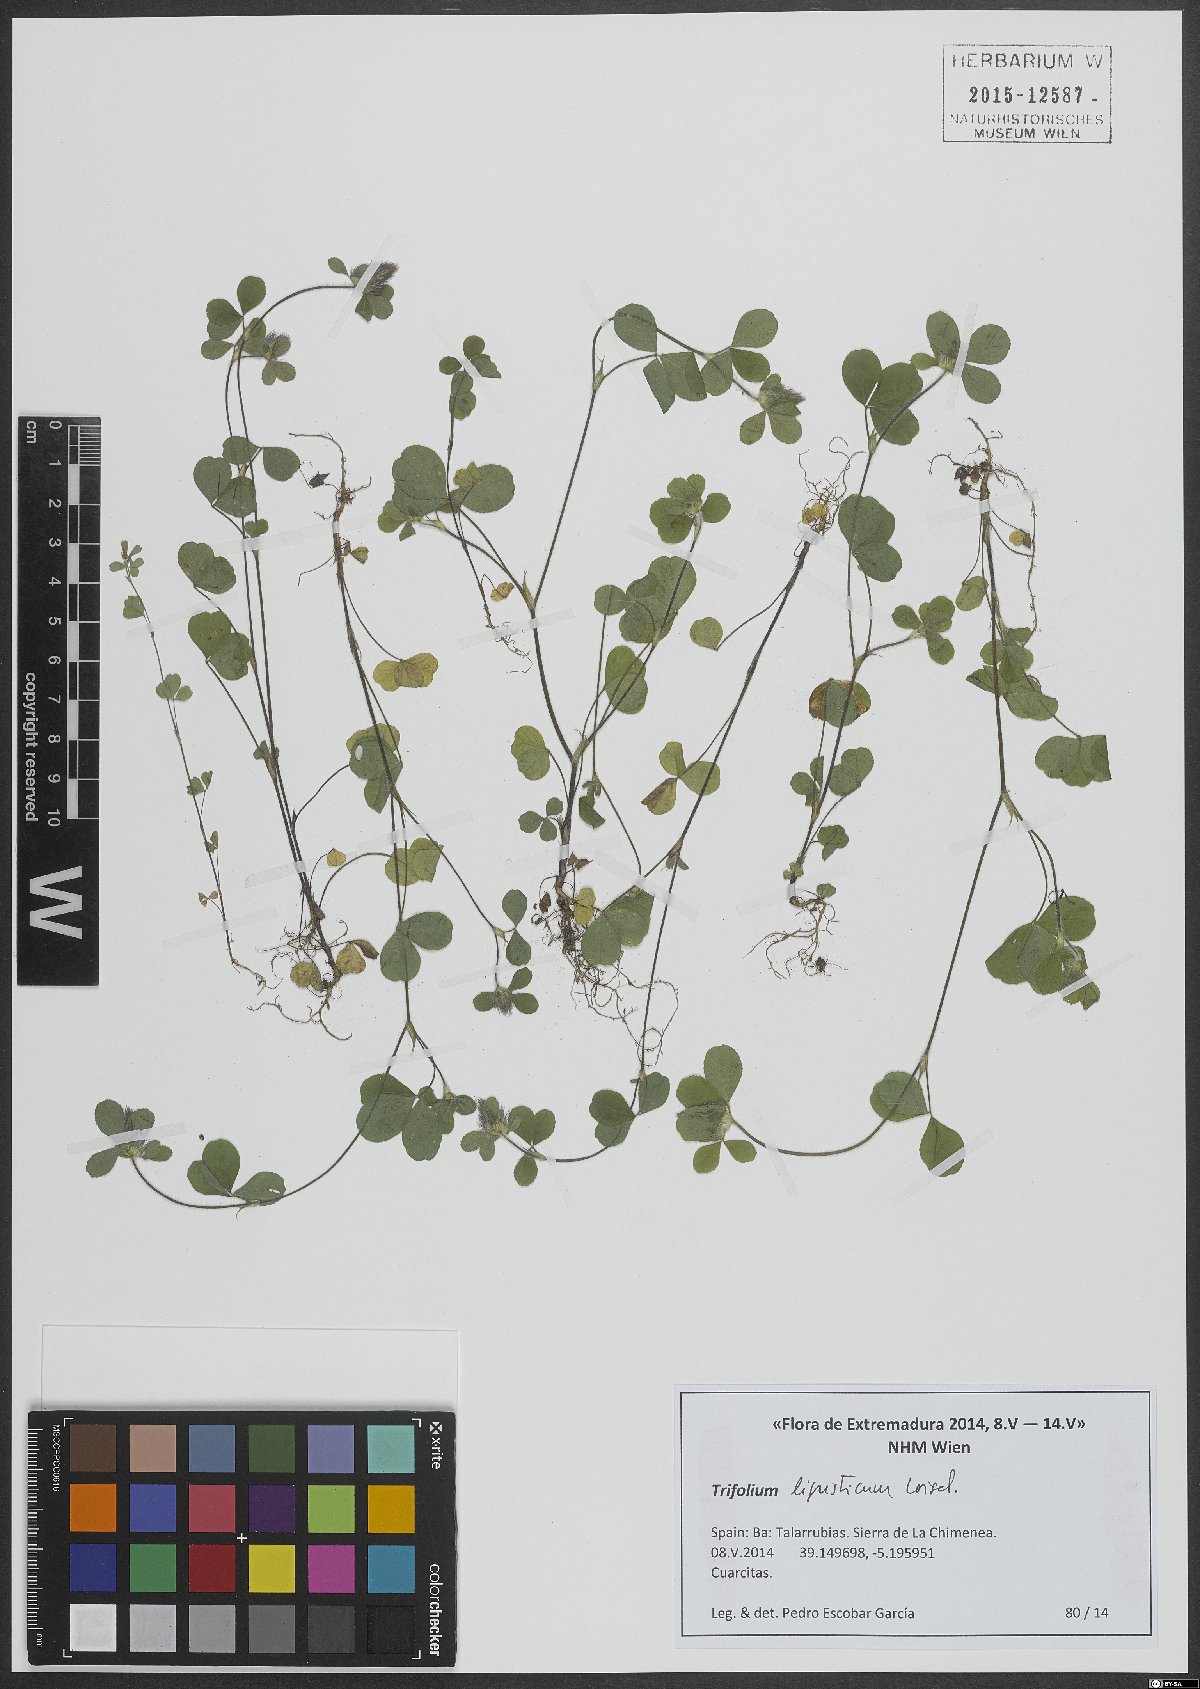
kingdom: Plantae
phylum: Tracheophyta
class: Magnoliopsida
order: Fabales
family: Fabaceae
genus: Trifolium
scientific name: Trifolium ligusticum
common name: Ligurian clover
